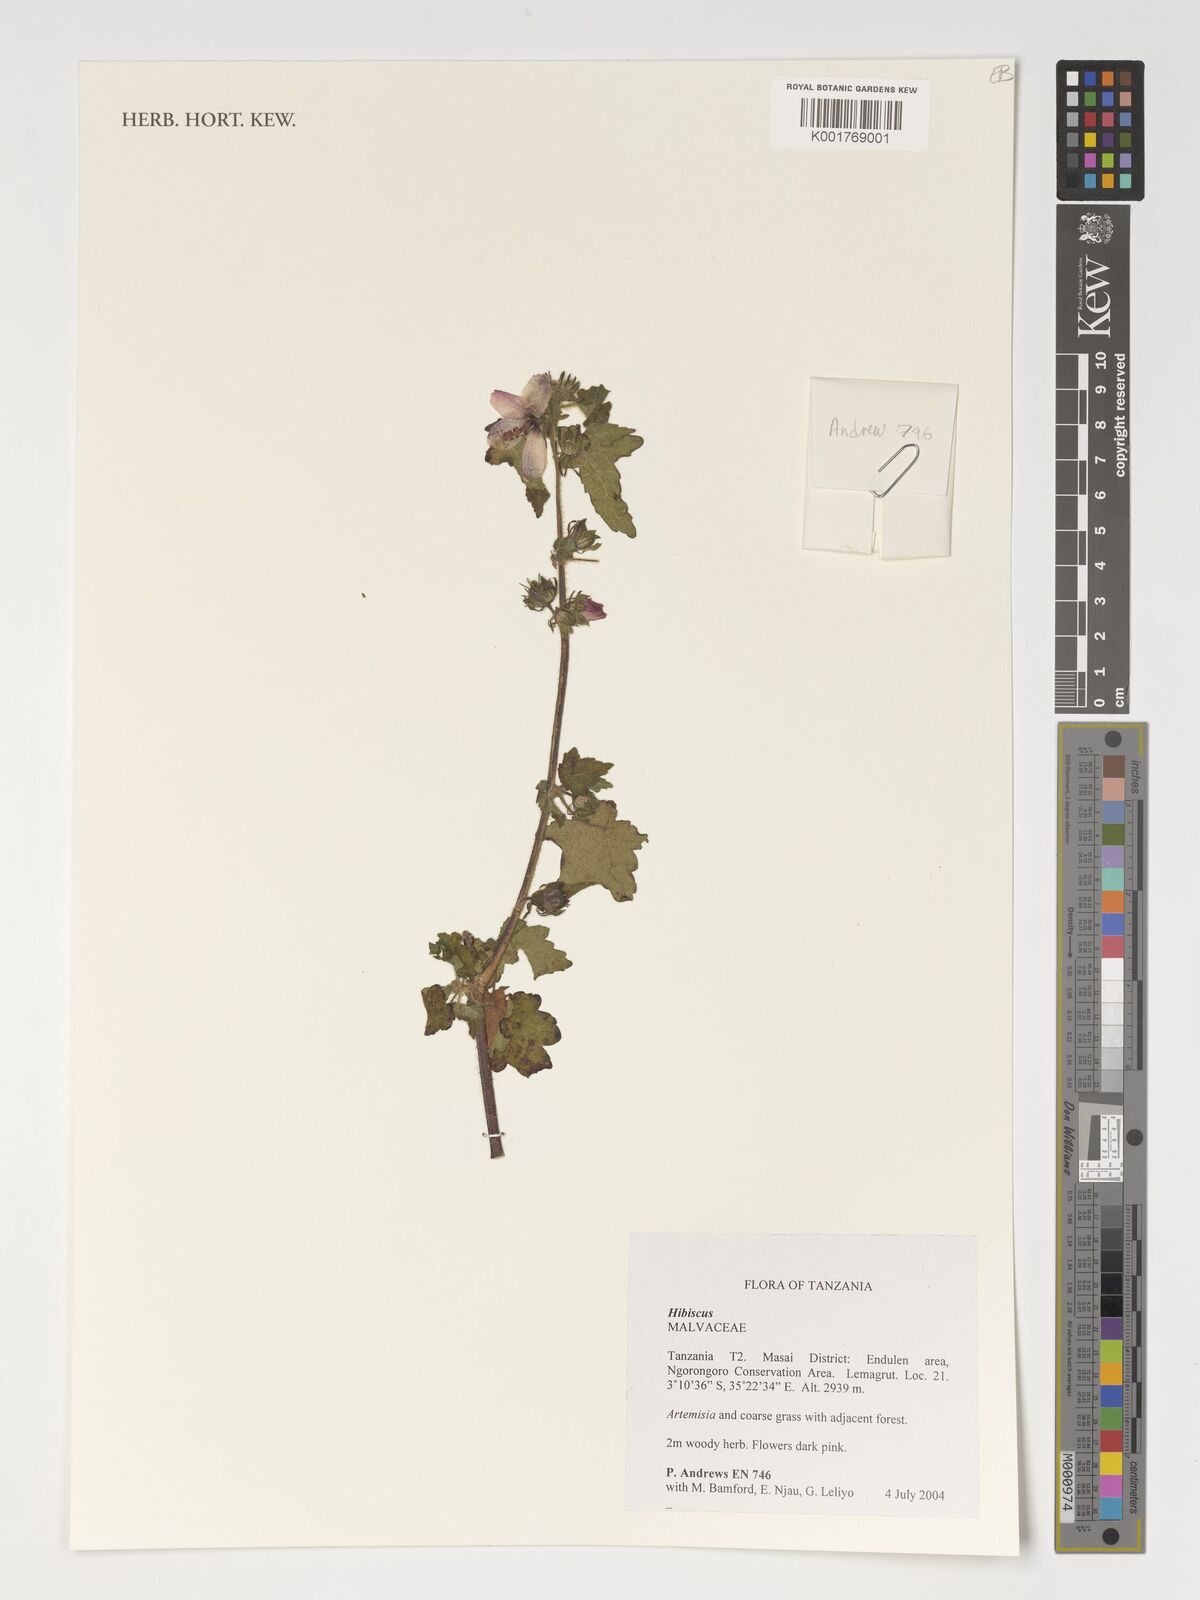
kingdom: Plantae
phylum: Tracheophyta
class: Magnoliopsida
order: Malvales
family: Malvaceae
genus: Hibiscus
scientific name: Hibiscus
